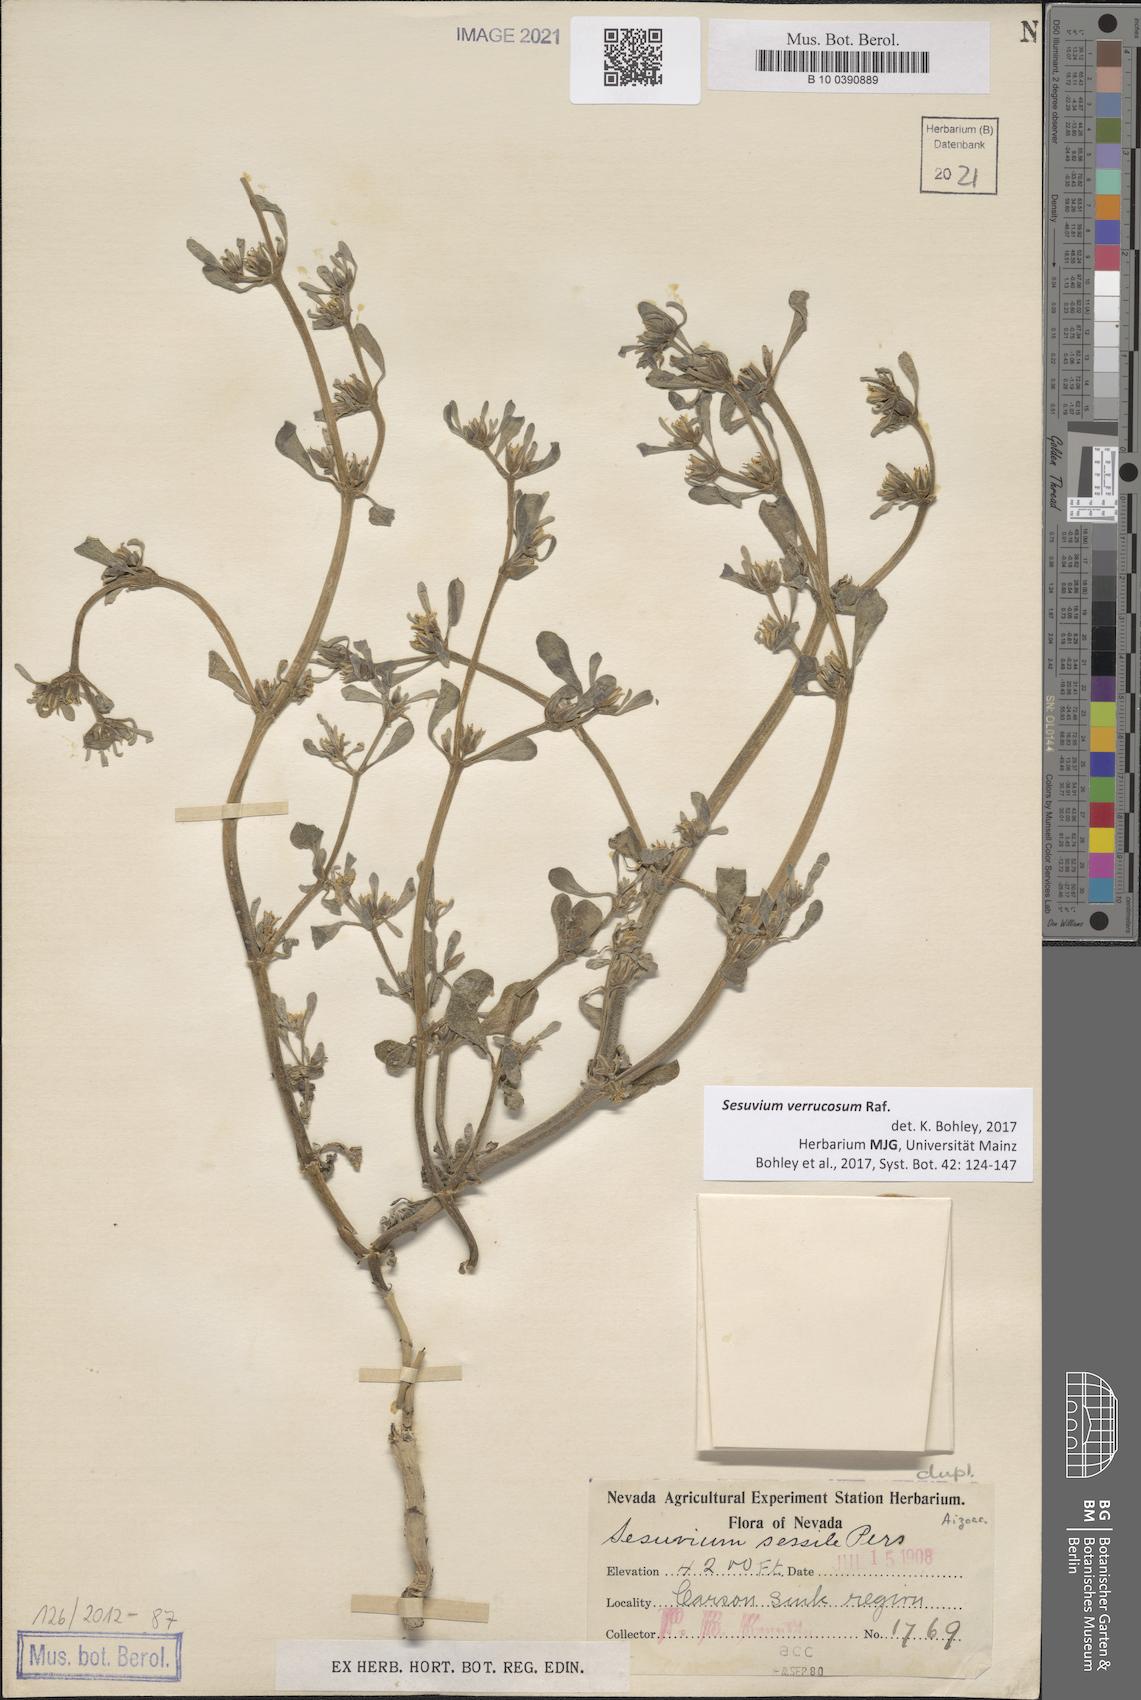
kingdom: Plantae
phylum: Tracheophyta
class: Magnoliopsida
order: Caryophyllales
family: Aizoaceae
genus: Sesuvium
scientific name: Sesuvium revolutifolium
